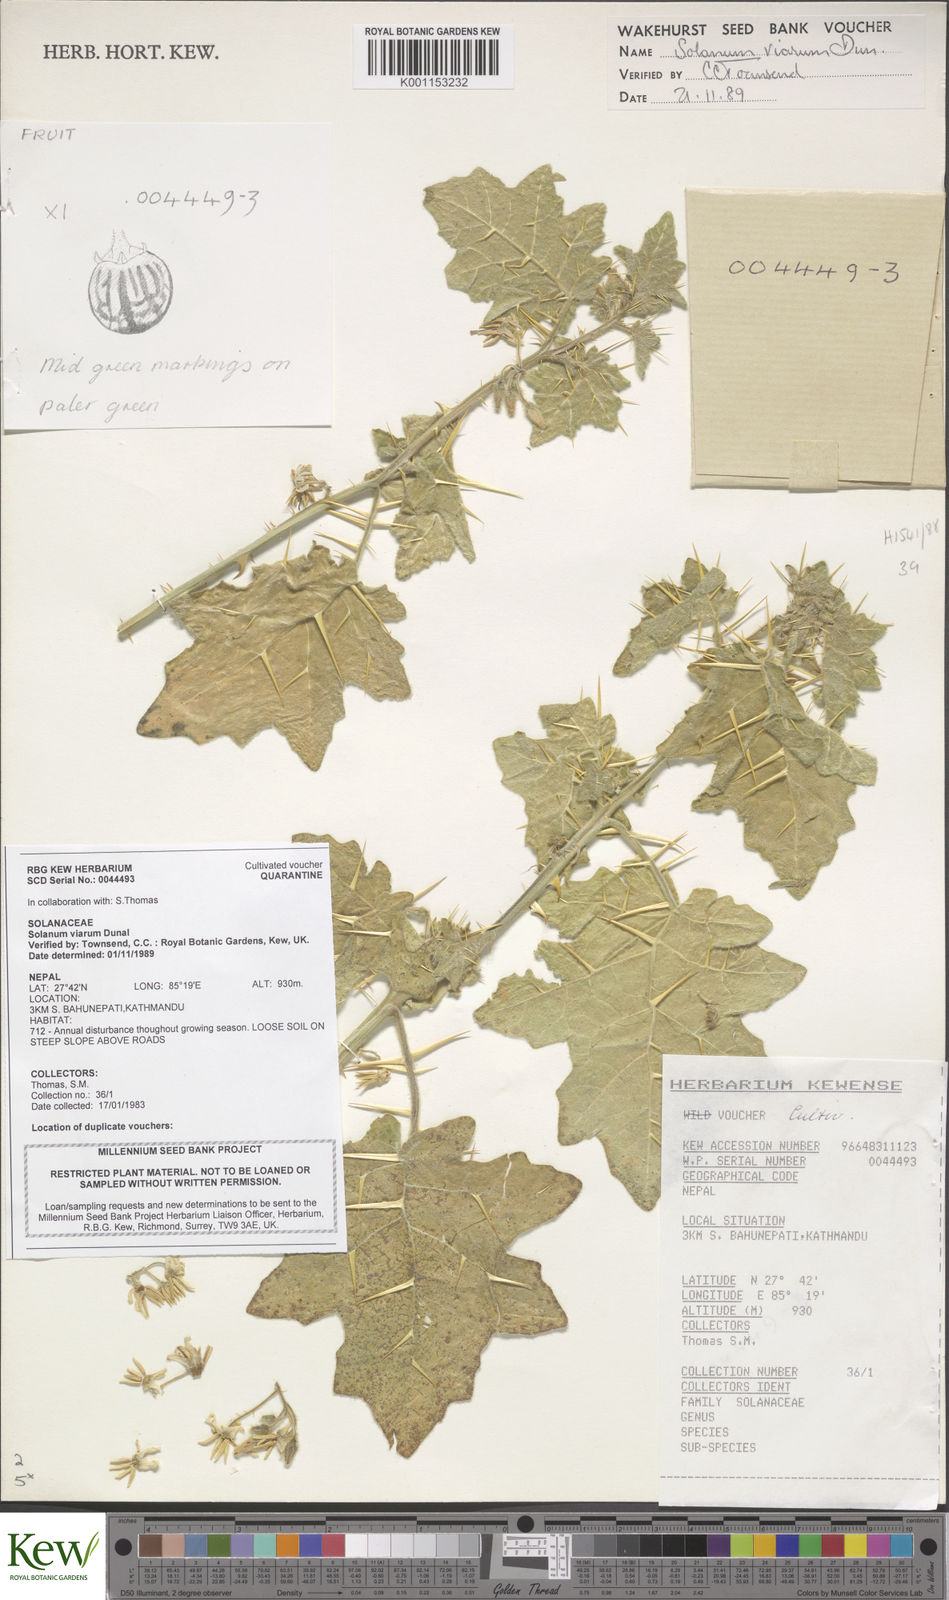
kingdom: Plantae
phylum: Tracheophyta
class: Magnoliopsida
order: Solanales
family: Solanaceae
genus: Solanum
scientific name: Solanum viarum
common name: Tropical soda apple
